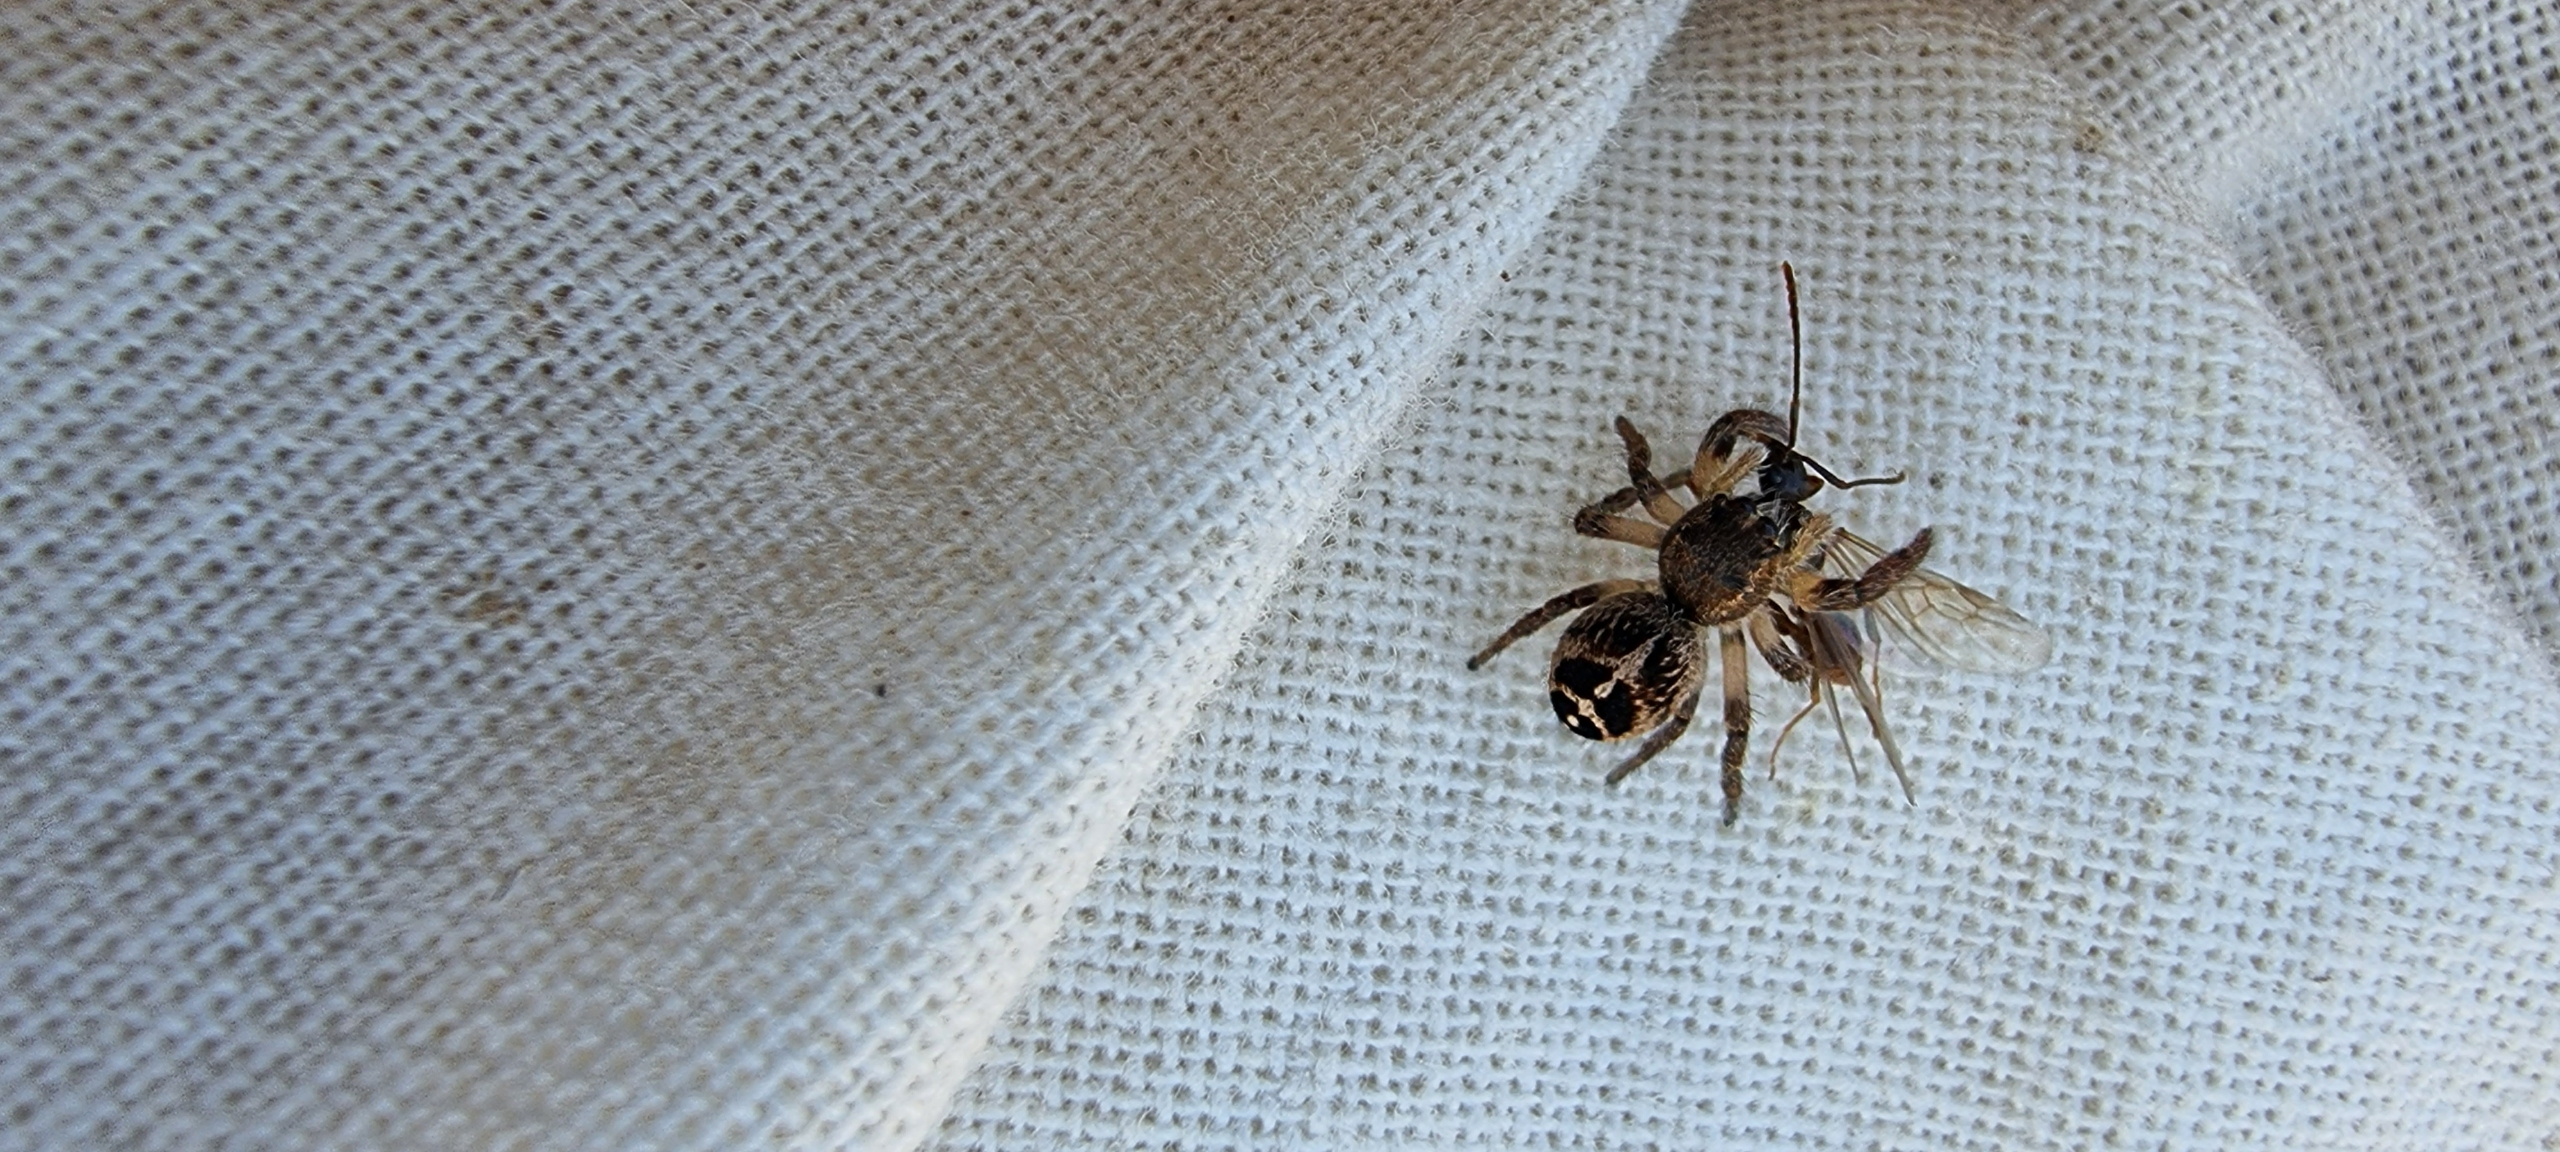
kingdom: Animalia
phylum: Arthropoda
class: Arachnida
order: Araneae
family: Salticidae
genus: Pellenes
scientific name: Pellenes tripunctatus
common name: Treplettet springedderkop
